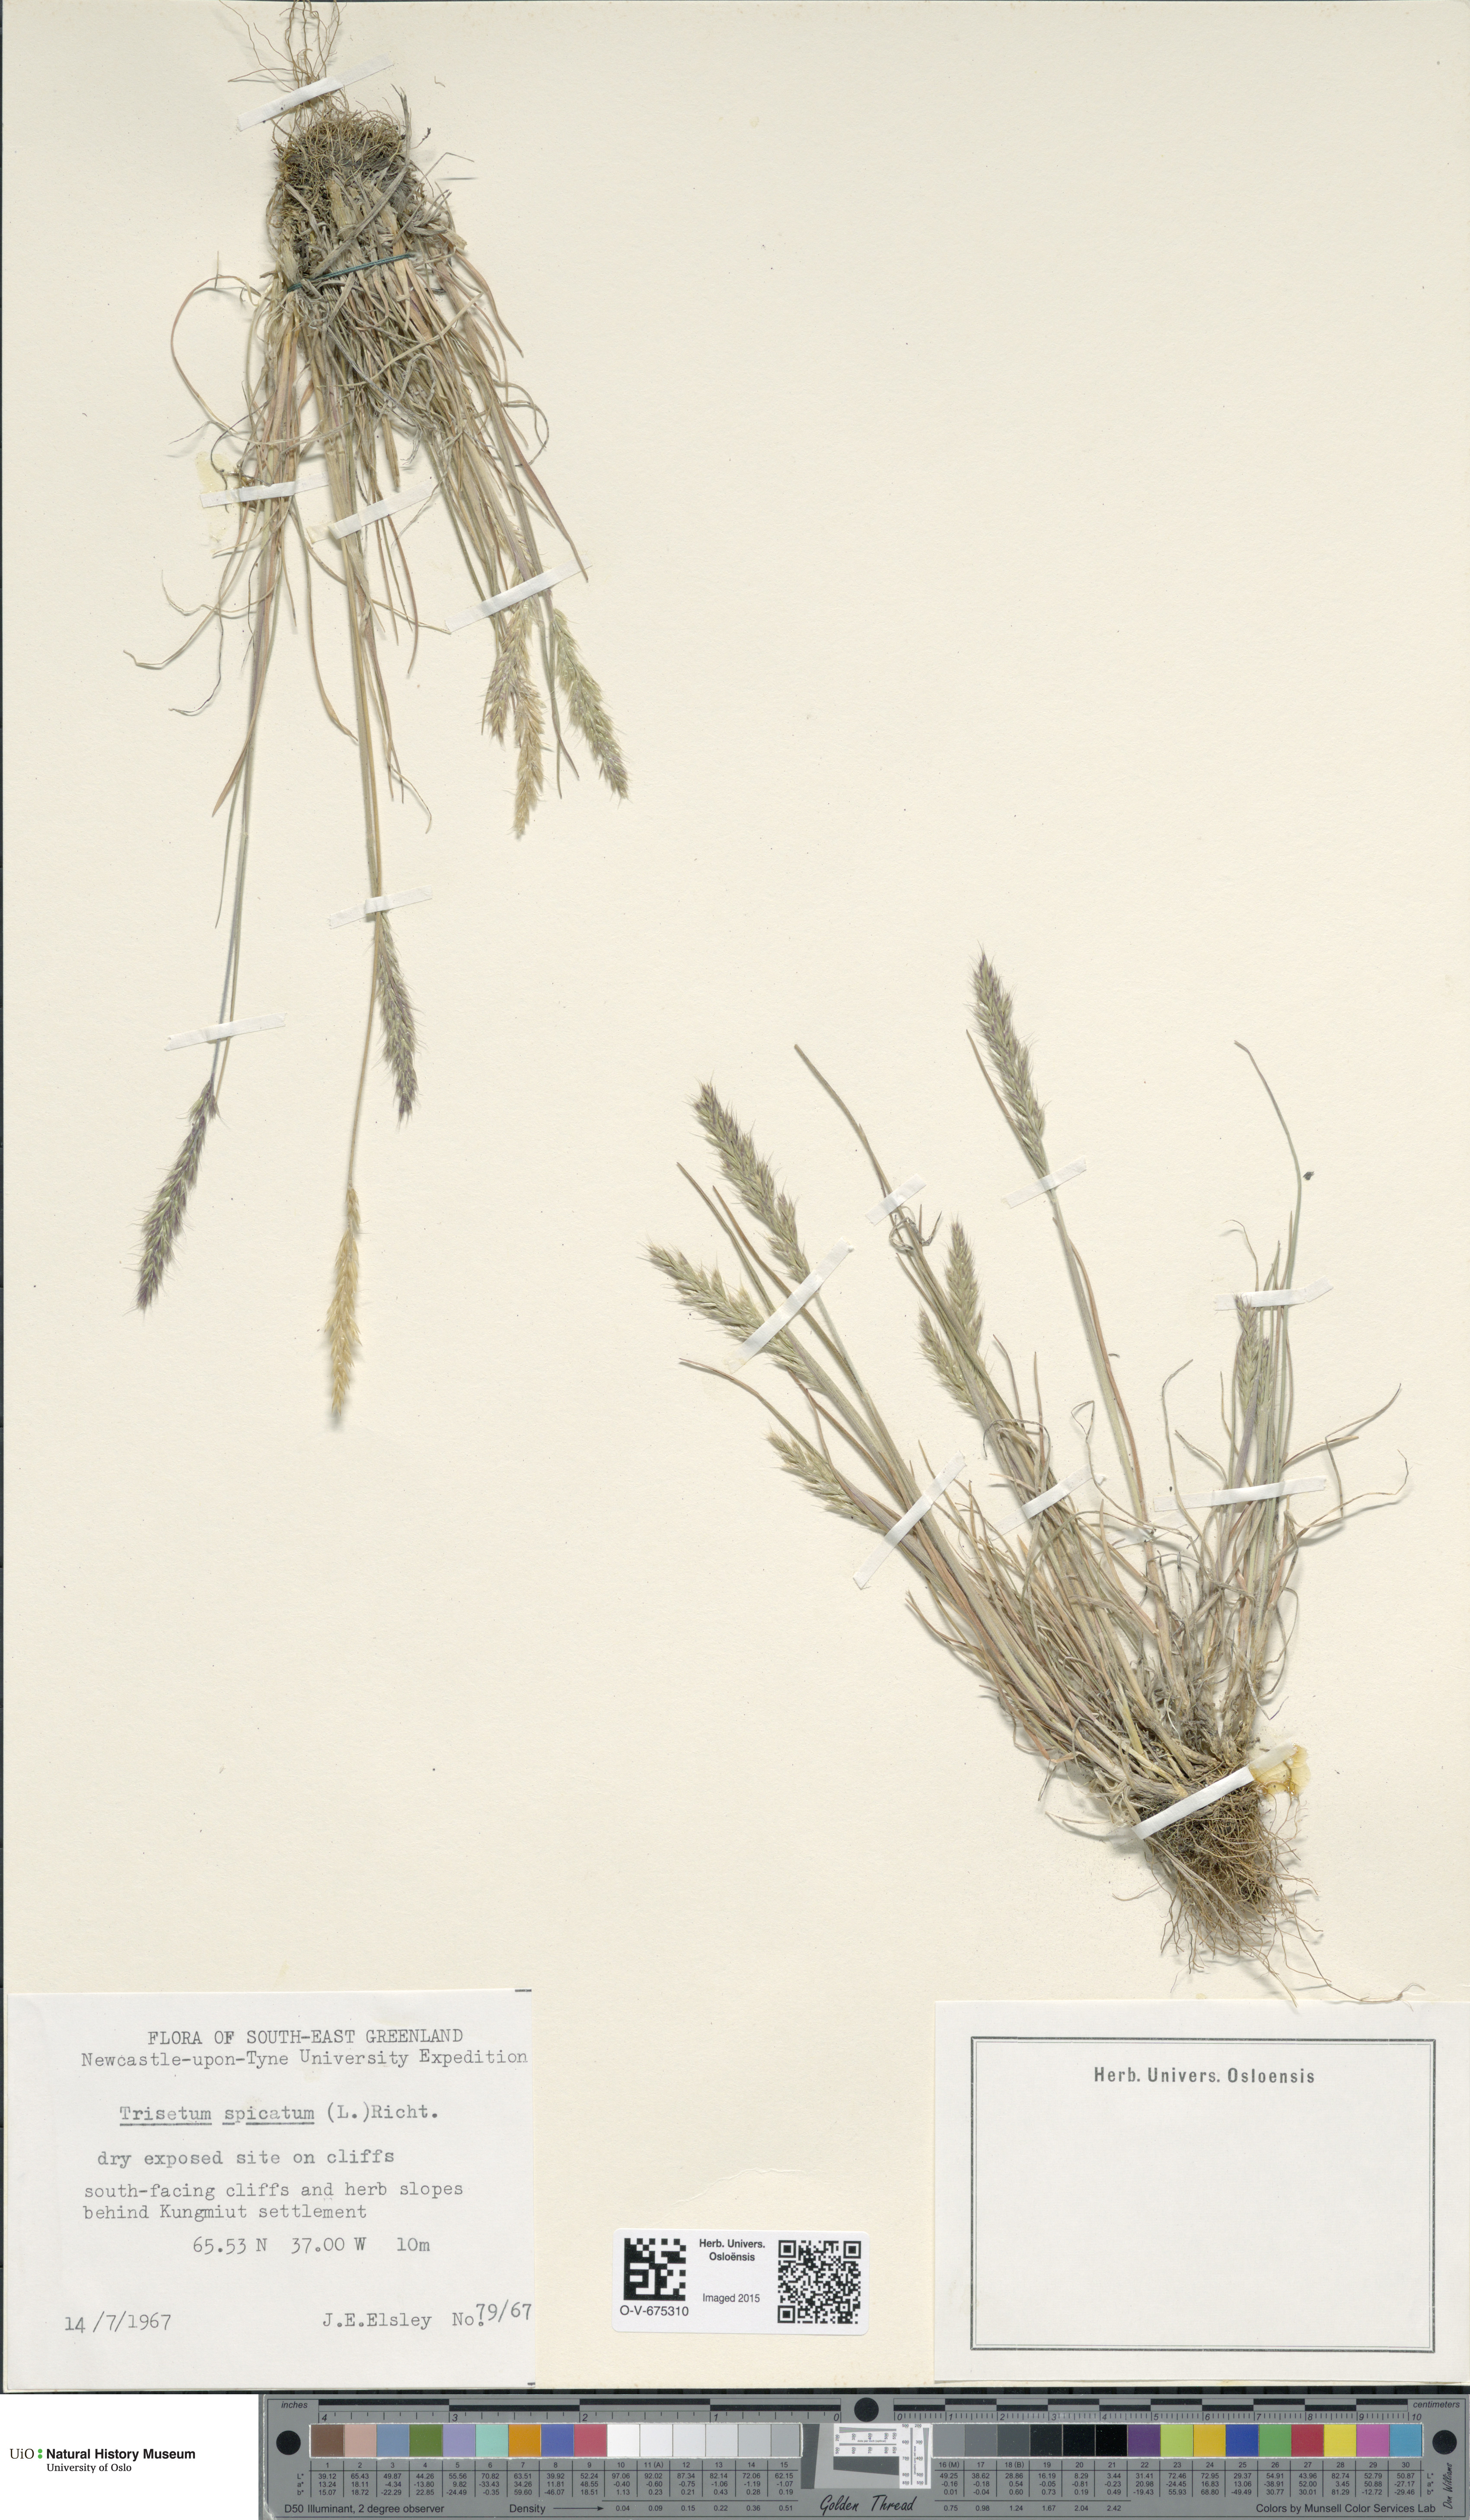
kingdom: Plantae
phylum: Tracheophyta
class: Liliopsida
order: Poales
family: Poaceae
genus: Koeleria
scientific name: Koeleria spicata
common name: Mountain trisetum
